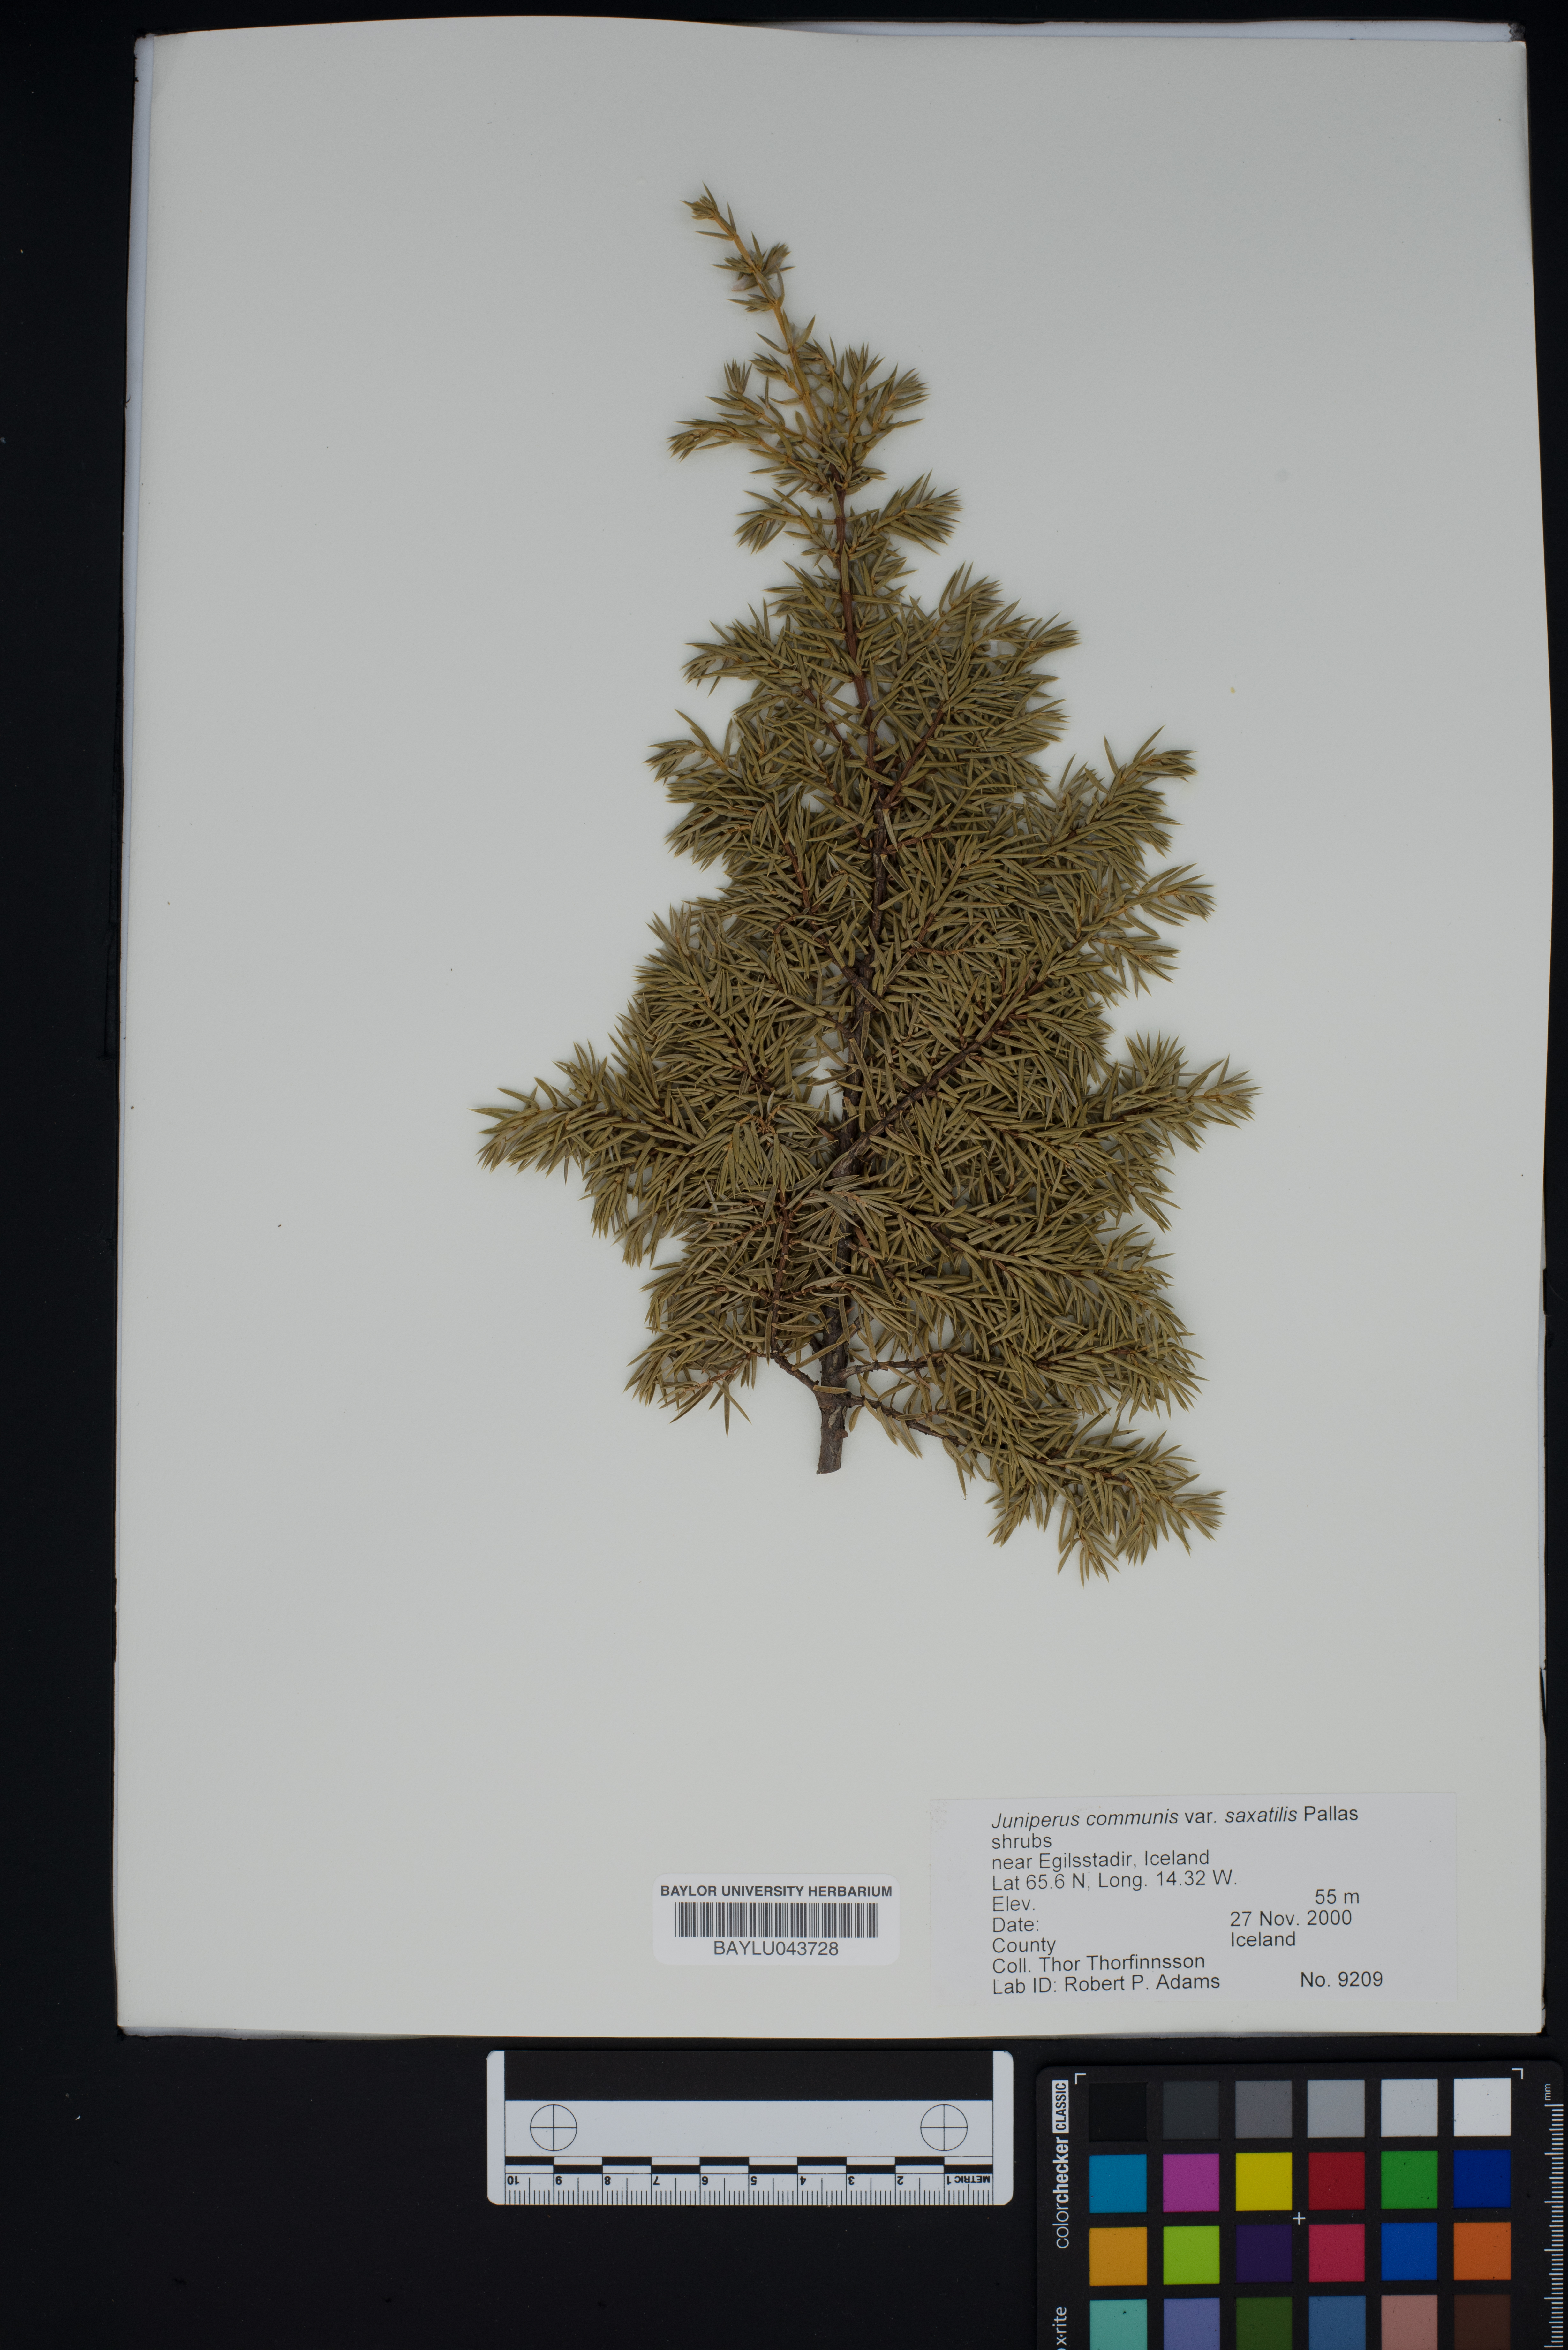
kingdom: Plantae
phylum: Tracheophyta
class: Pinopsida
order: Pinales
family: Cupressaceae
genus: Juniperus
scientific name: Juniperus communis
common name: Common juniper
